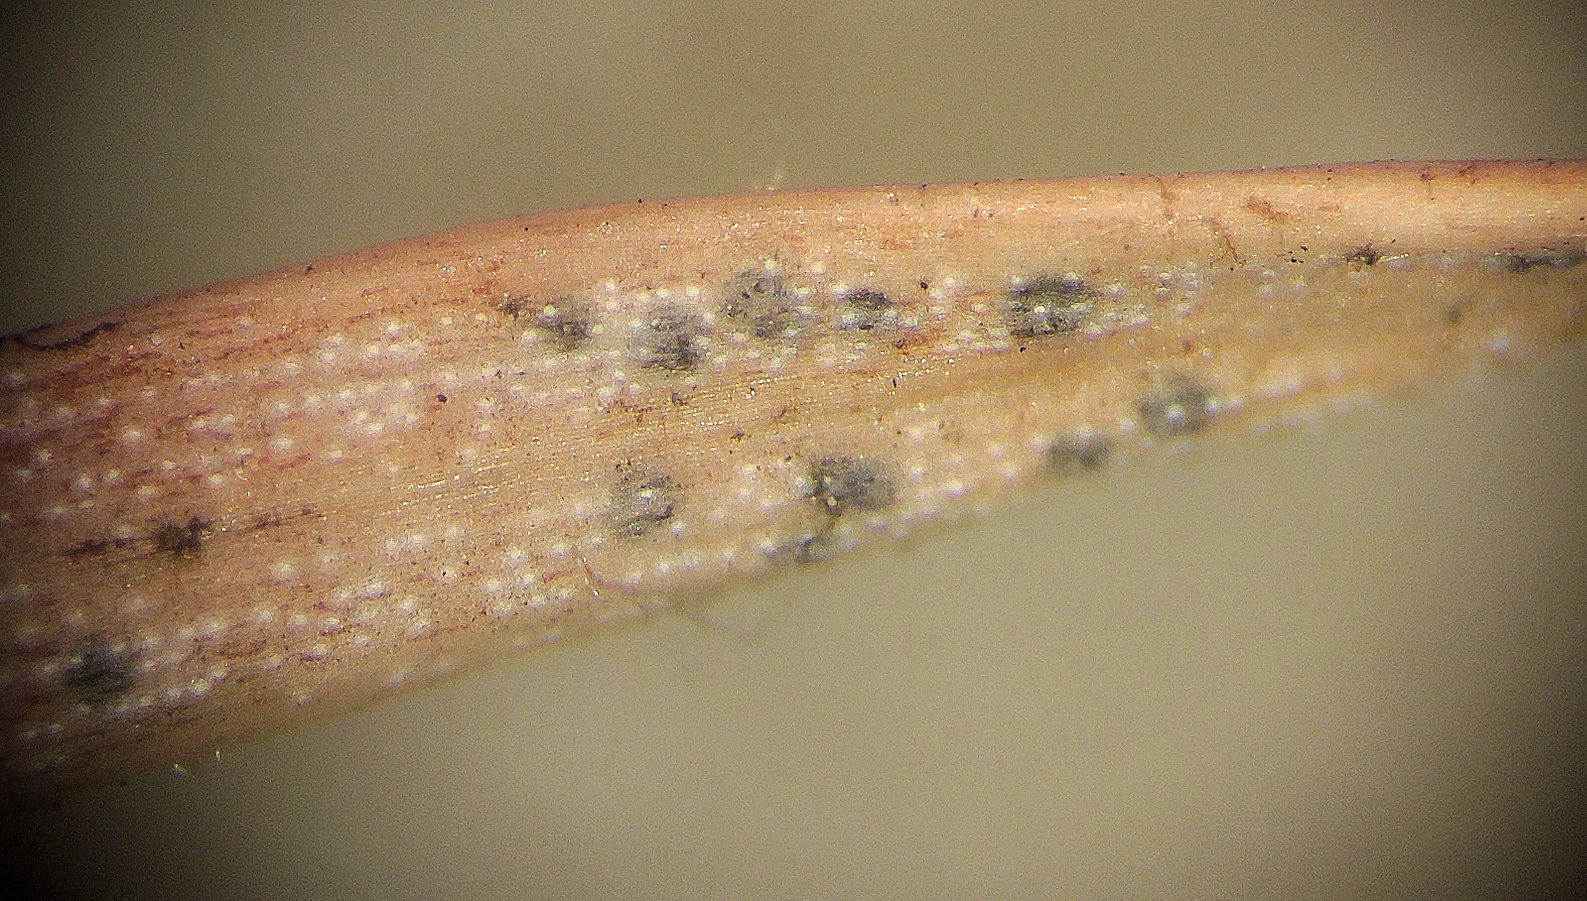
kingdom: Fungi
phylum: Ascomycota
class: Dothideomycetes
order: Venturiales
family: Venturiaceae
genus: Rhizosphaera
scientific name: Rhizosphaera oudemansii
